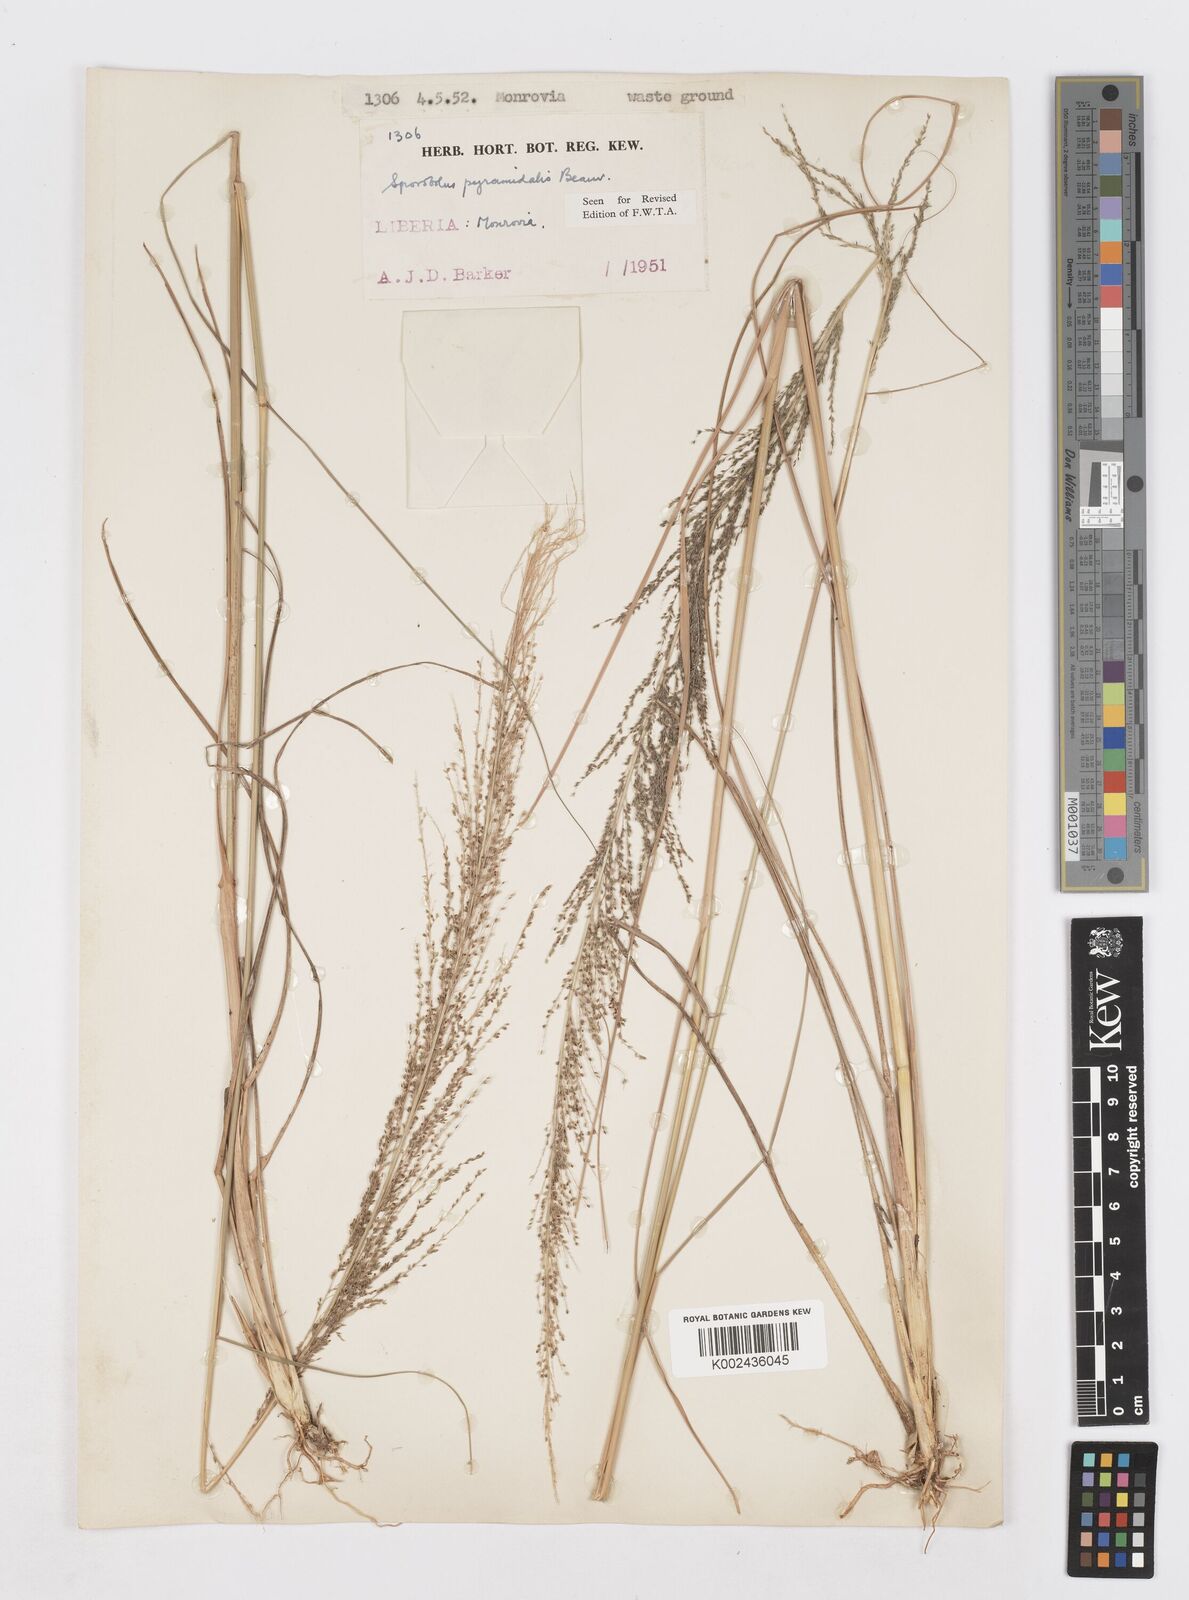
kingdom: Plantae
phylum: Tracheophyta
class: Liliopsida
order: Poales
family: Poaceae
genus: Sporobolus
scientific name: Sporobolus pyramidalis
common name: West indian dropseed
